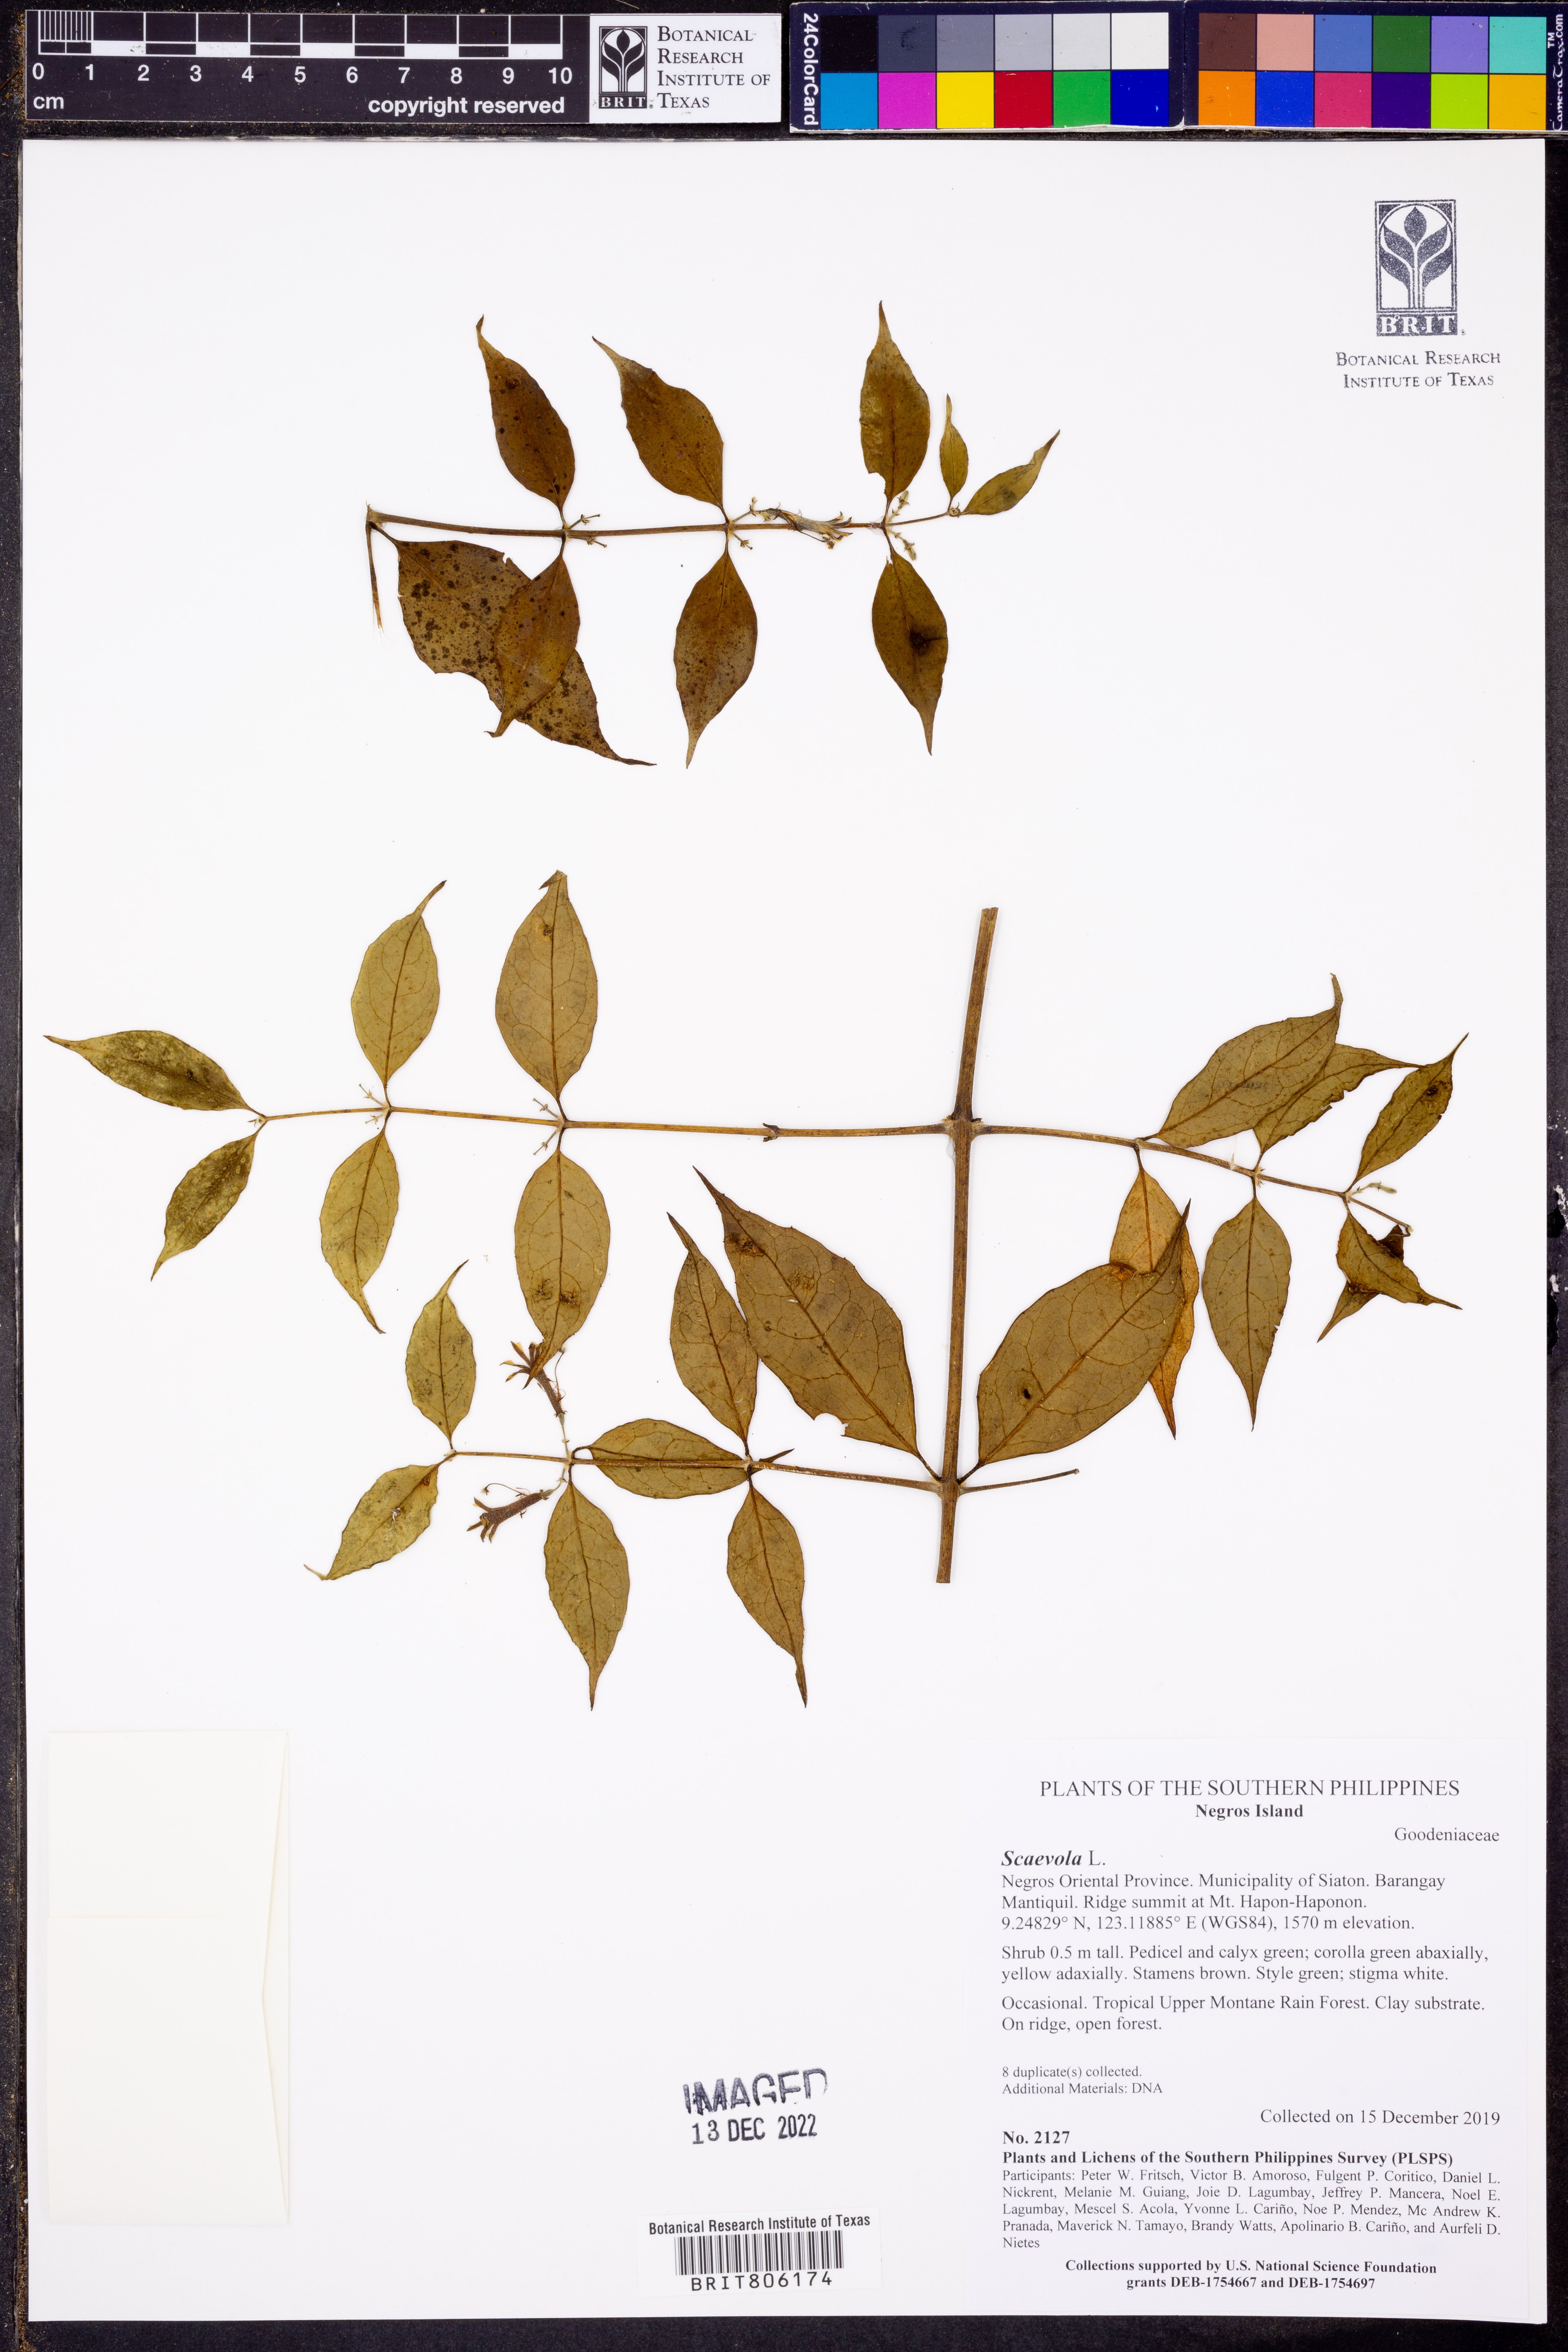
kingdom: Plantae
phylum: Tracheophyta
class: Magnoliopsida
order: Asterales
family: Goodeniaceae
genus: Scaevola
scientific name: Scaevola
